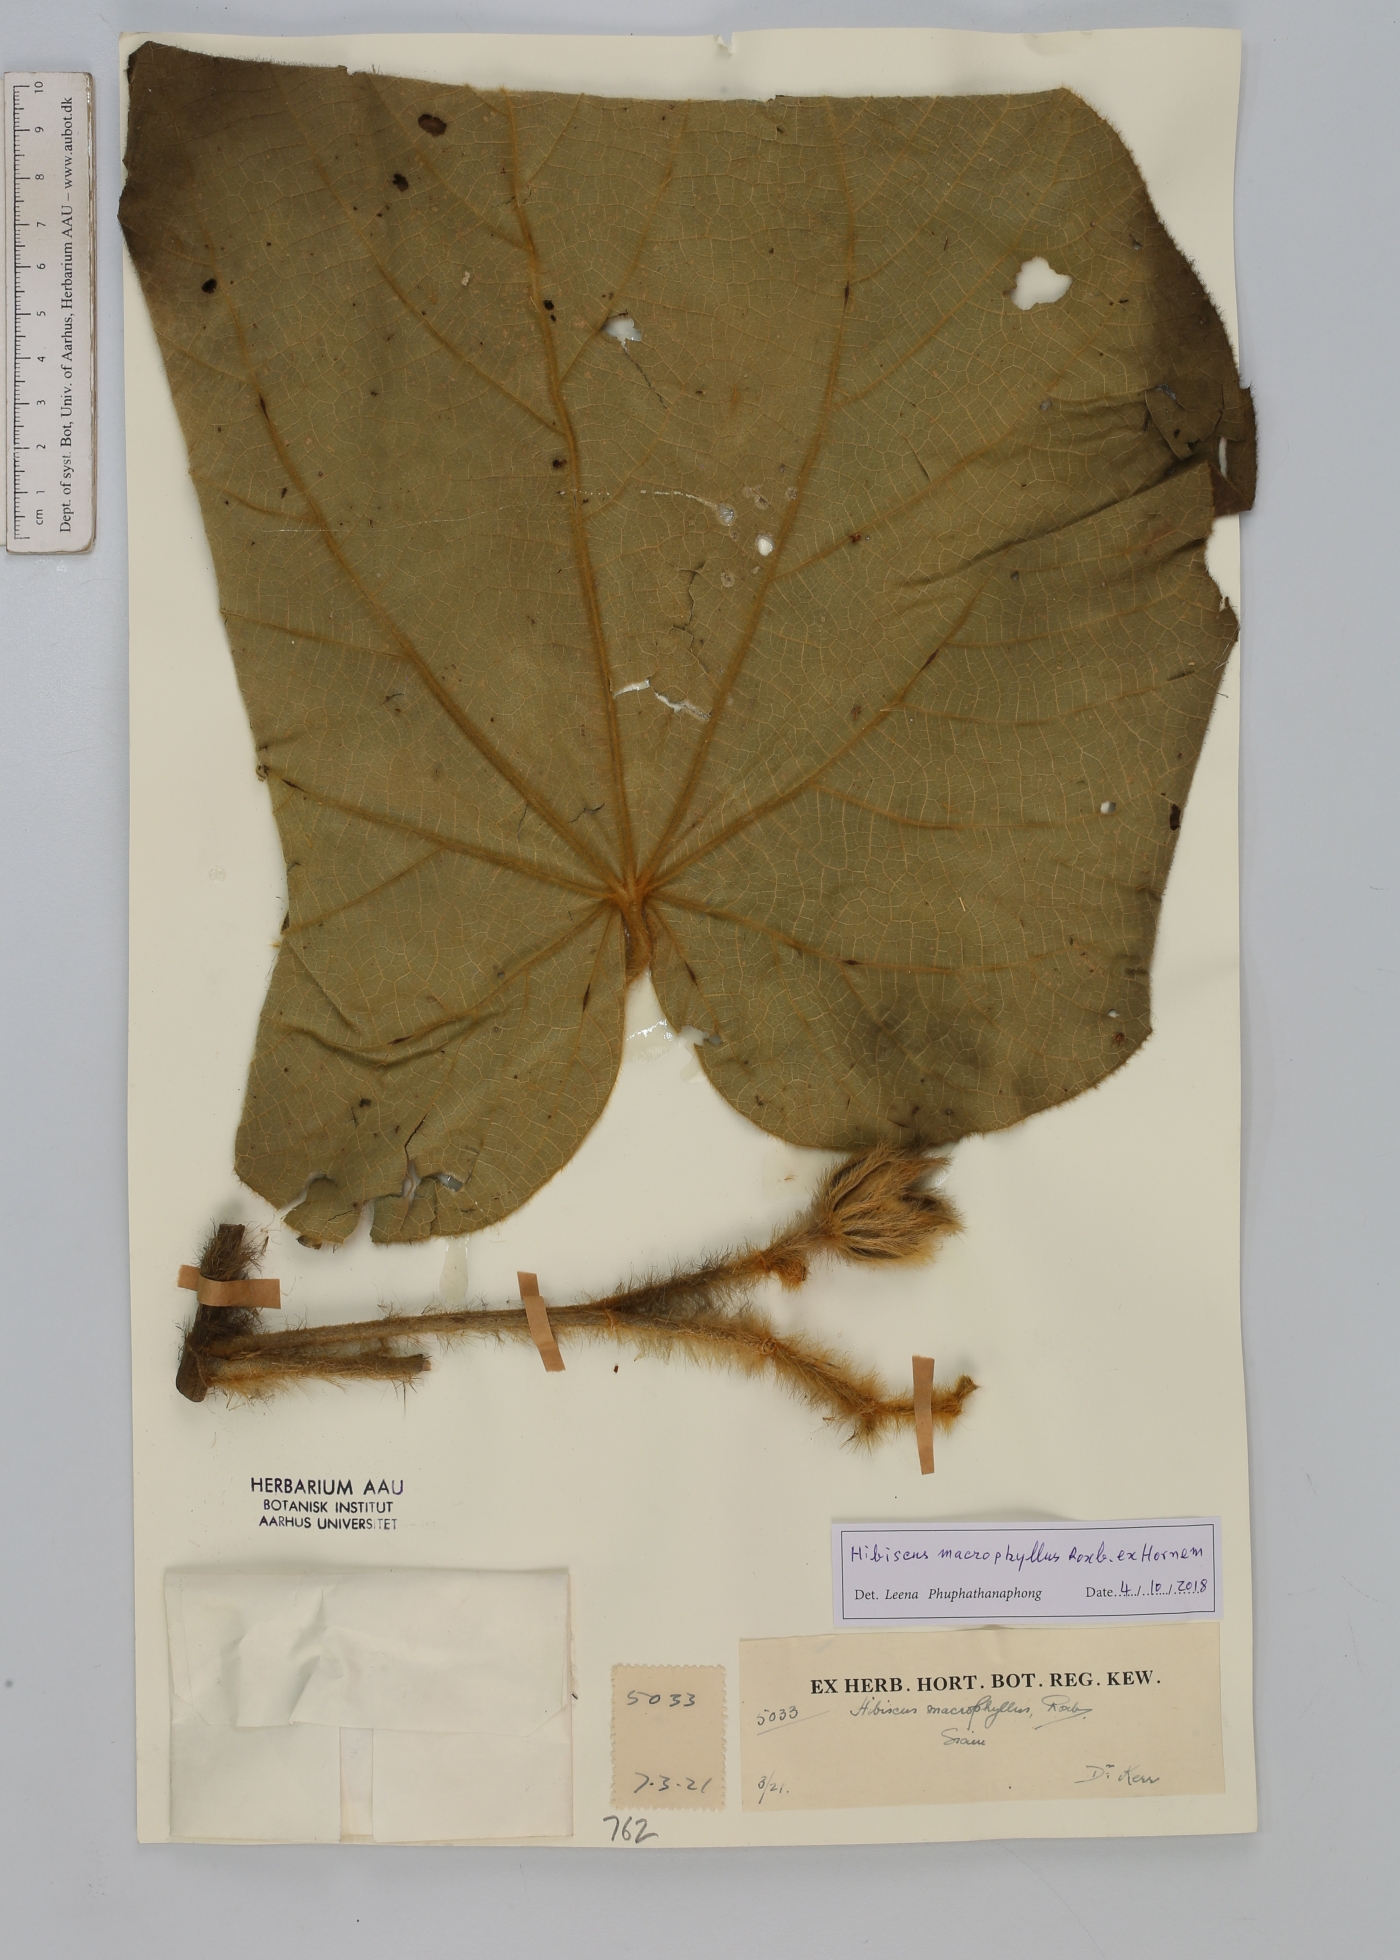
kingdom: Plantae
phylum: Tracheophyta
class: Magnoliopsida
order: Malvales
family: Malvaceae
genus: Talipariti
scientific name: Talipariti macrophyllum
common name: Largeleaf rosemallow
